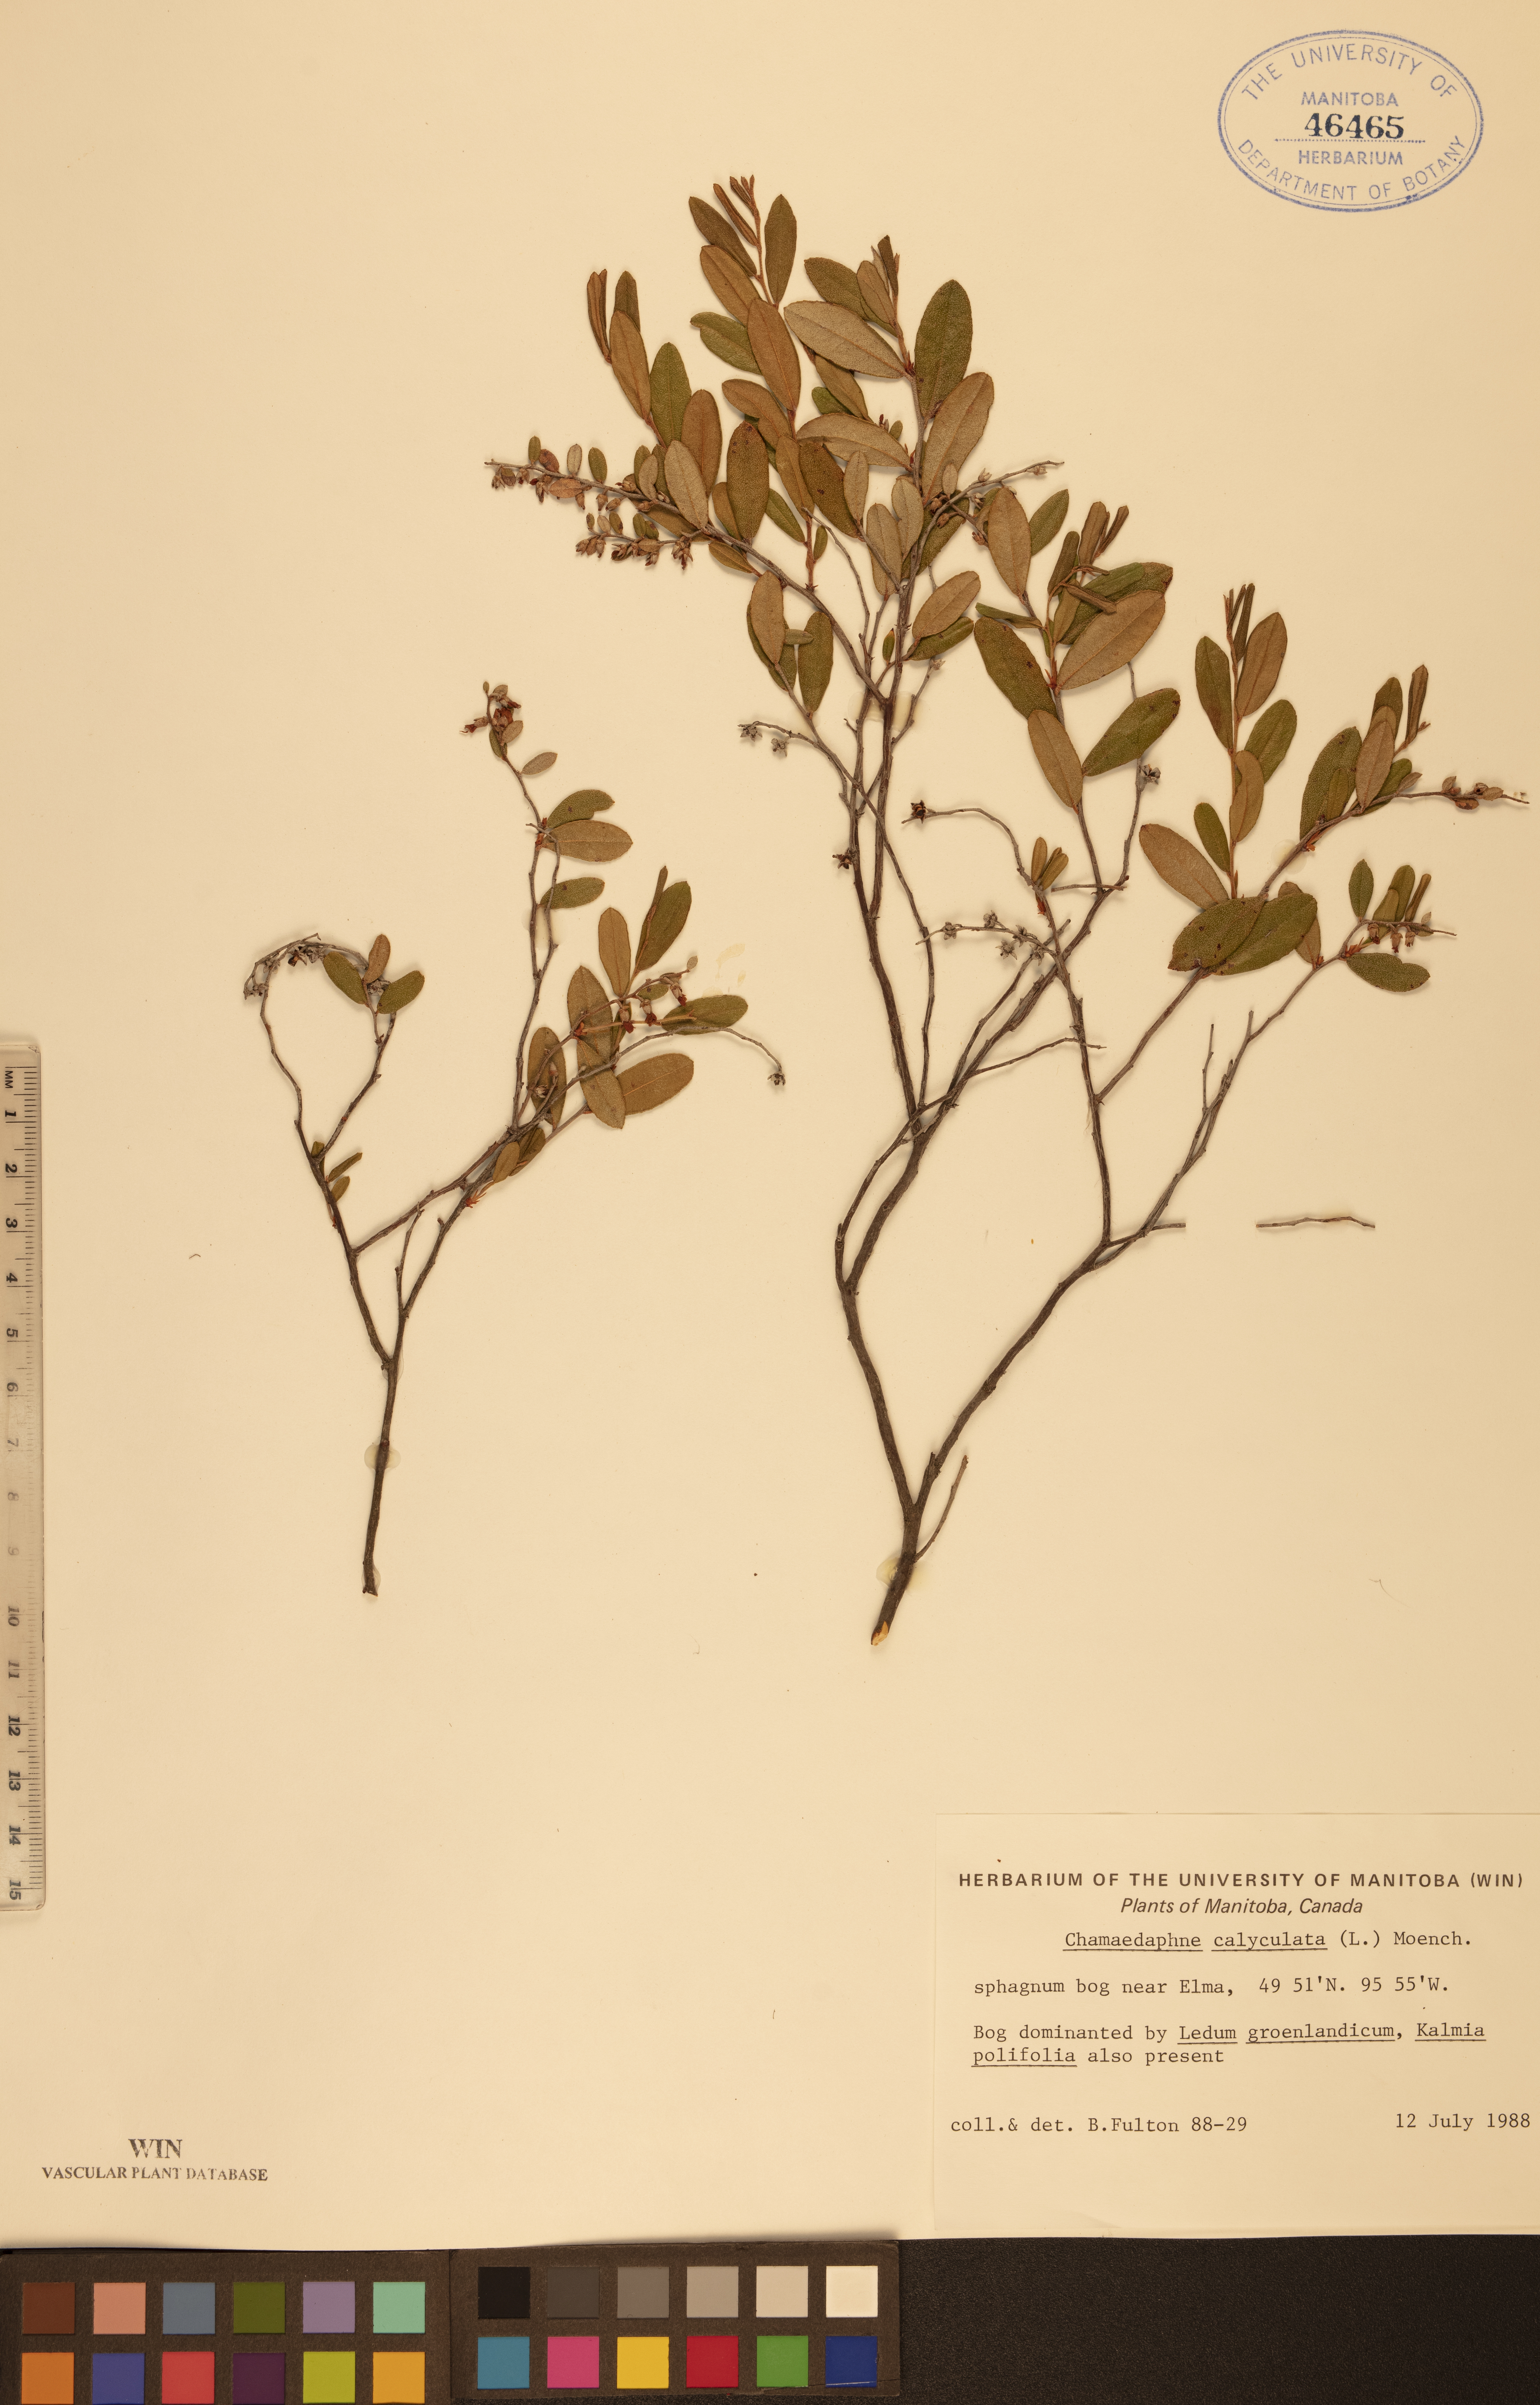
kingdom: Plantae
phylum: Tracheophyta
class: Magnoliopsida
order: Ericales
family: Ericaceae
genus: Chamaedaphne
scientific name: Chamaedaphne calyculata
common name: Leatherleaf
